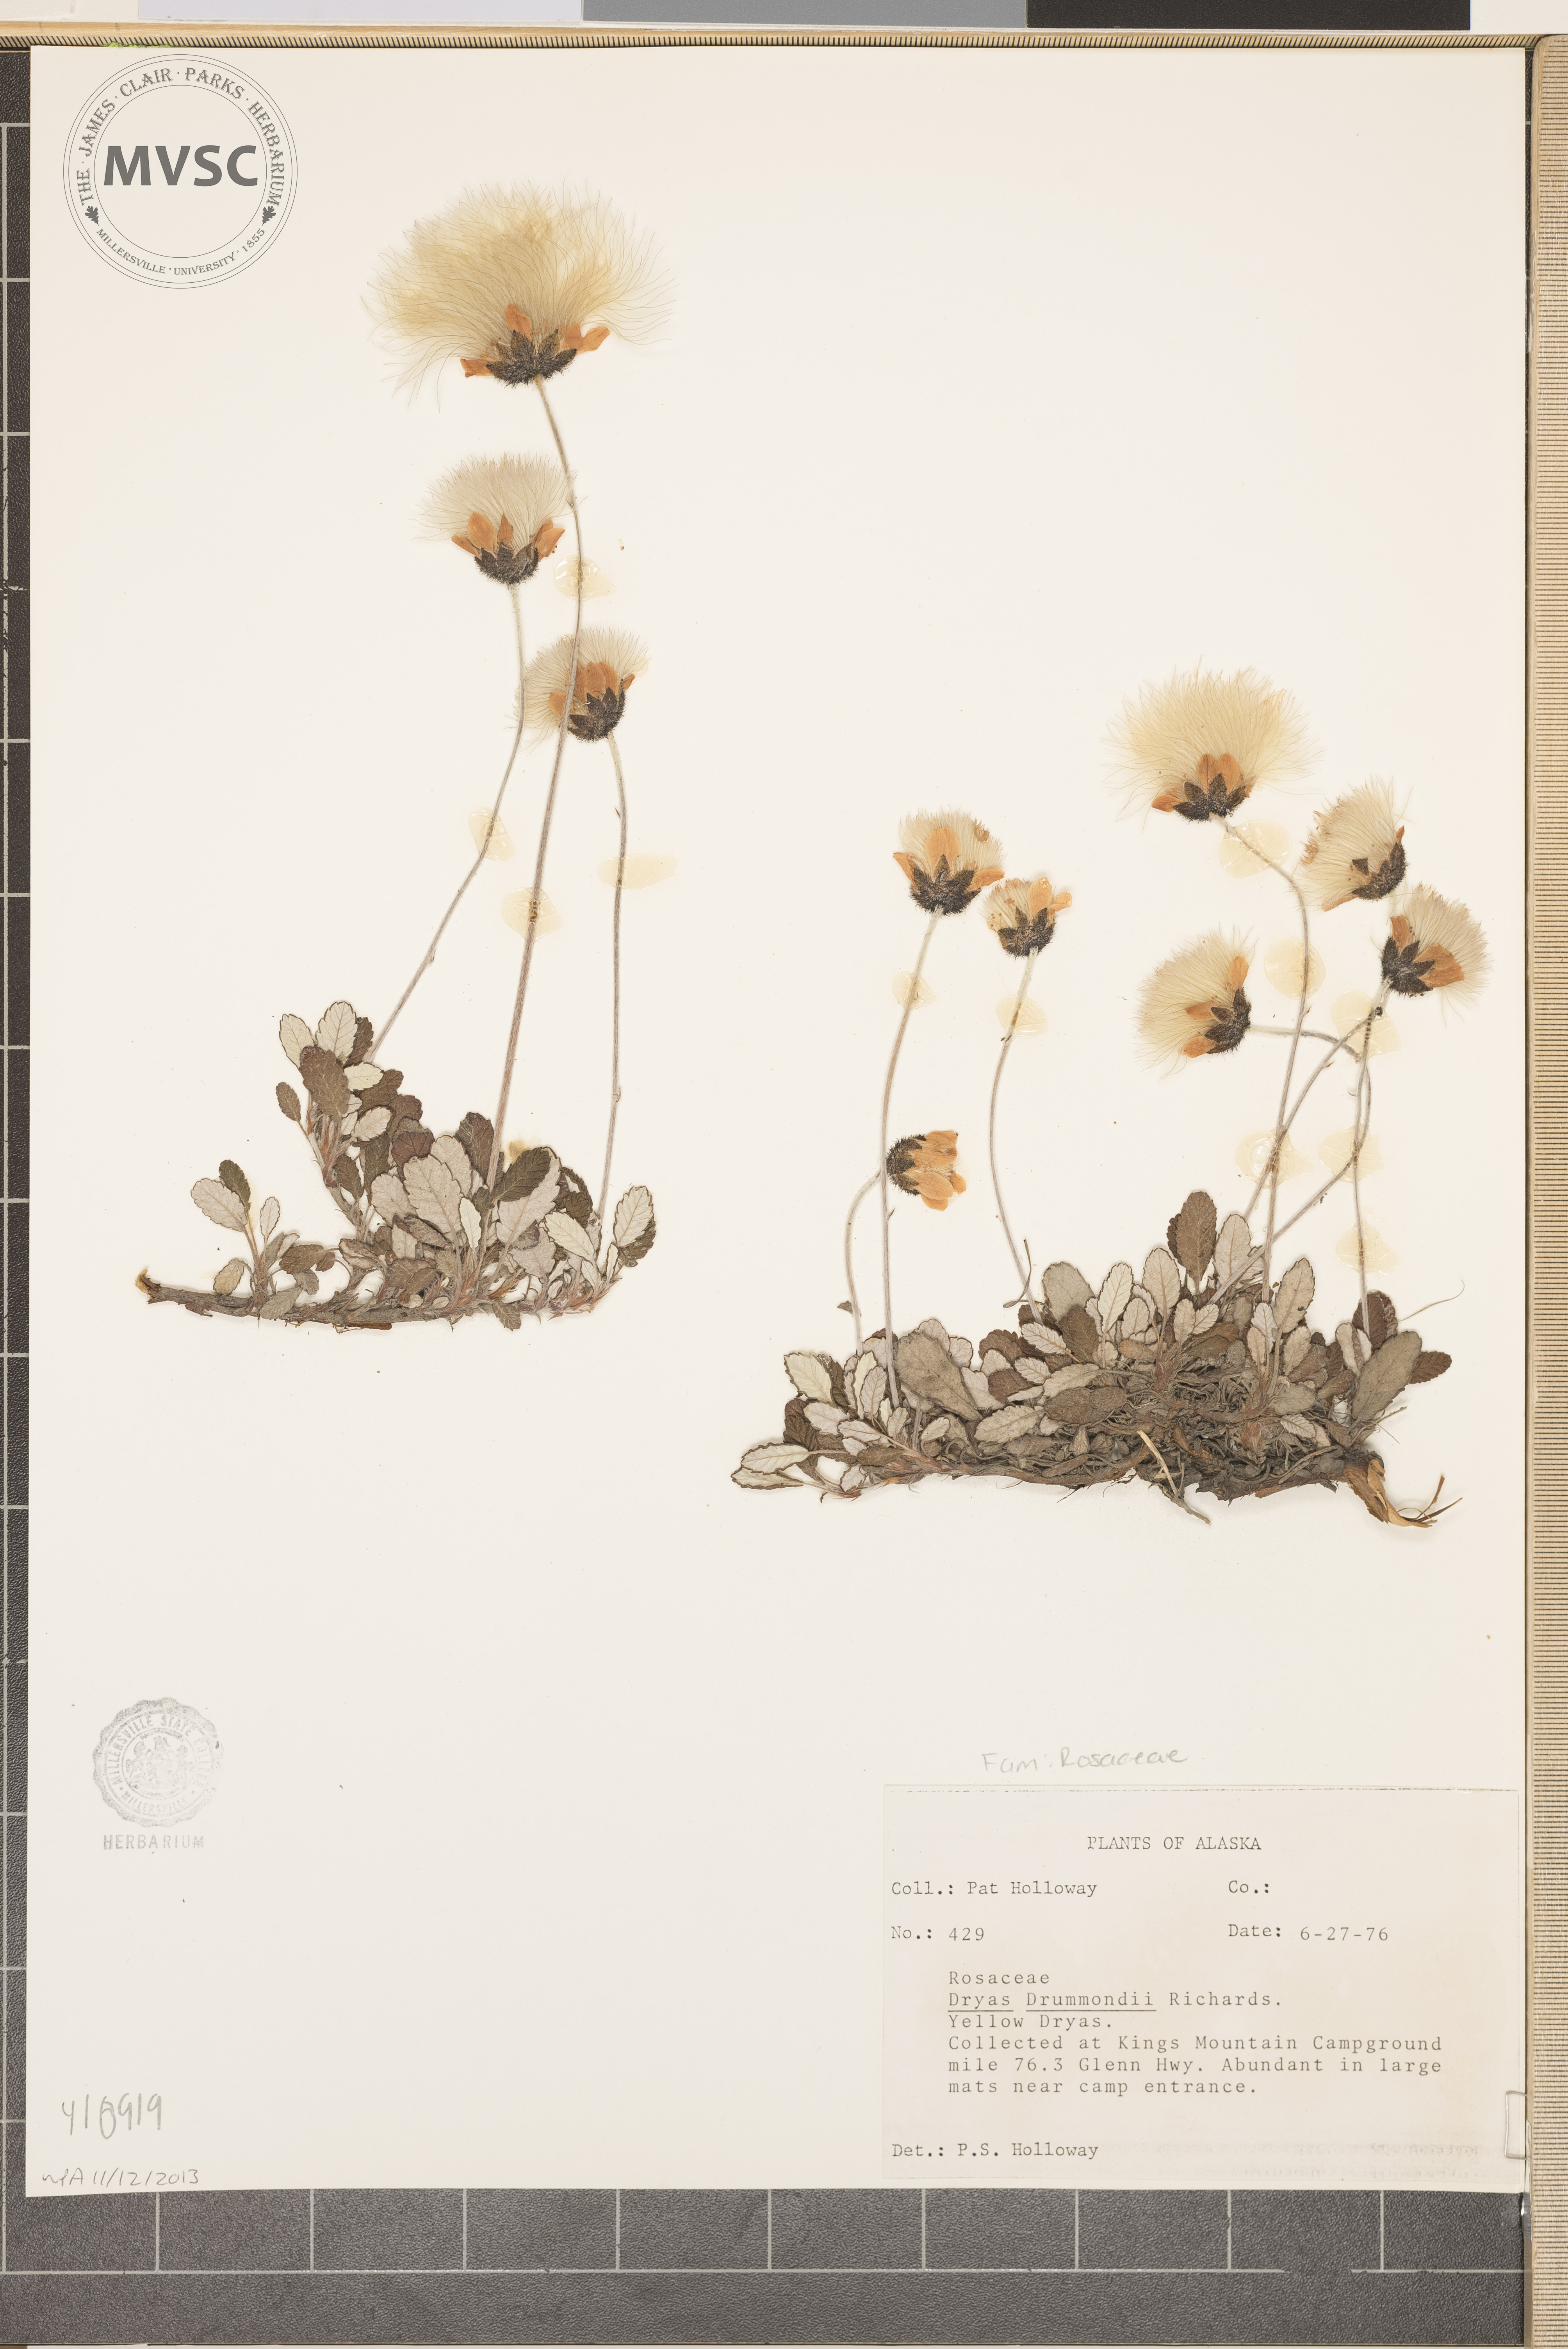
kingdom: Plantae
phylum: Tracheophyta
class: Magnoliopsida
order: Rosales
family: Rosaceae
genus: Dryas
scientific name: Dryas drummondii
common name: Drummond's dryad
